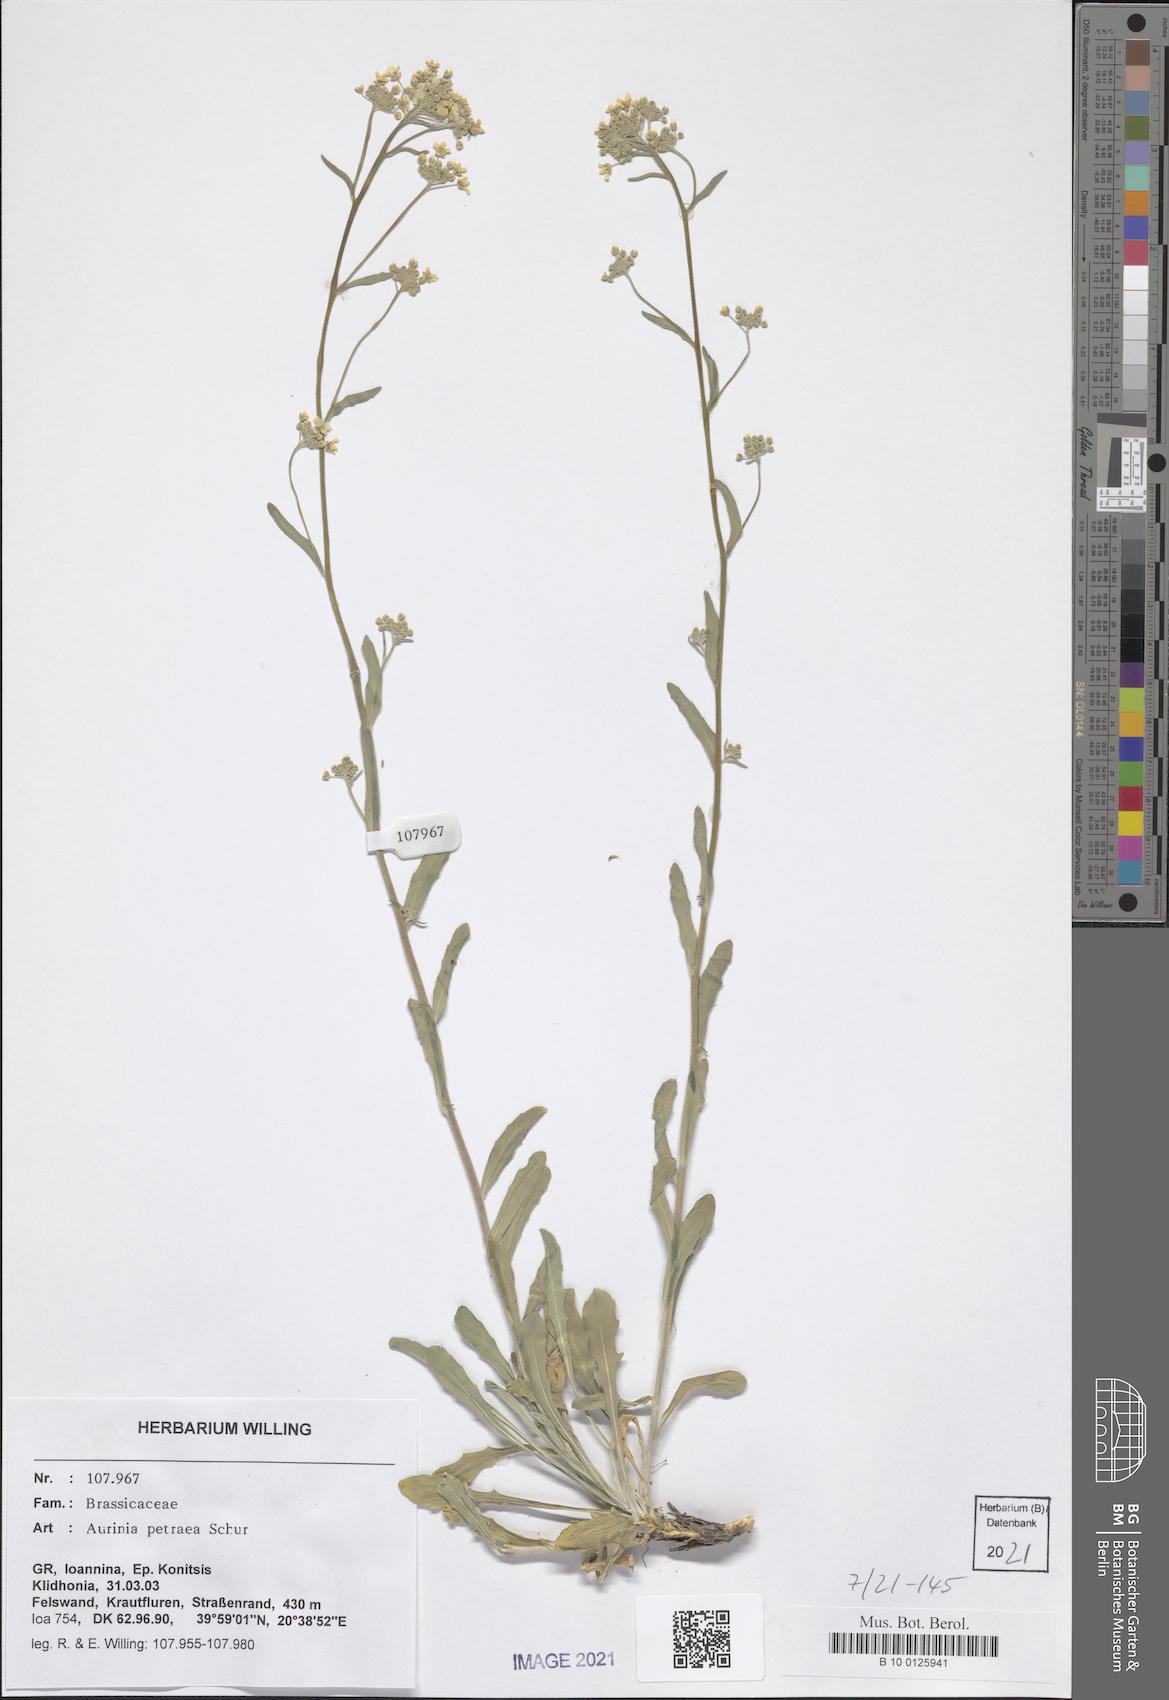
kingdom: Plantae
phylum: Tracheophyta
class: Magnoliopsida
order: Brassicales
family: Brassicaceae
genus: Aurinia
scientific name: Aurinia petraea
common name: Goldentuft
